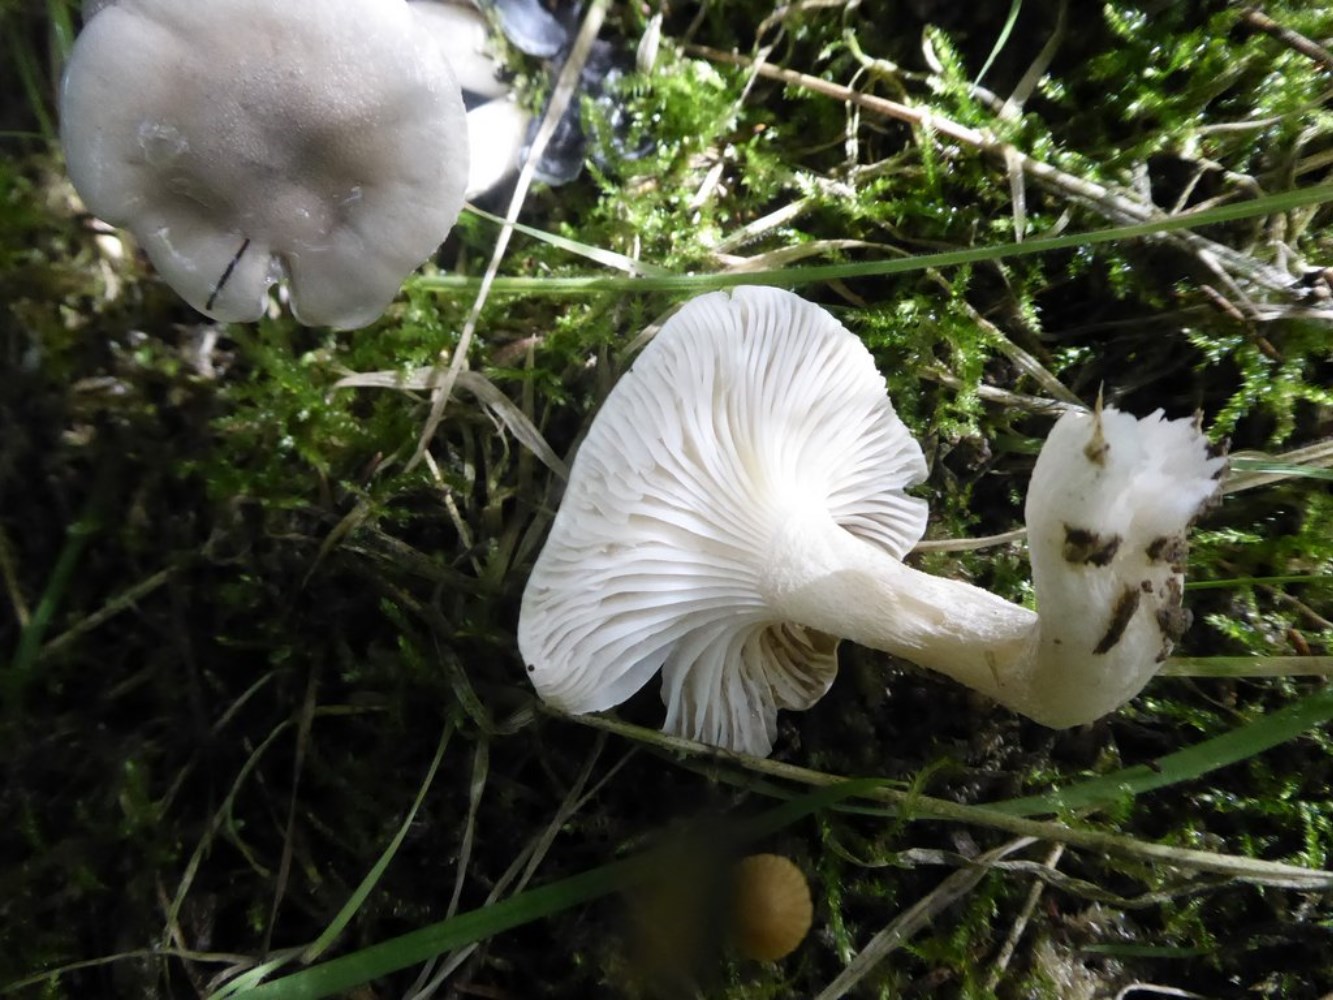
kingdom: Fungi
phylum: Basidiomycota
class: Agaricomycetes
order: Agaricales
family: Hygrophoraceae
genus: Hygrophorus
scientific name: Hygrophorus agathosmus
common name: vellugtende sneglehat
